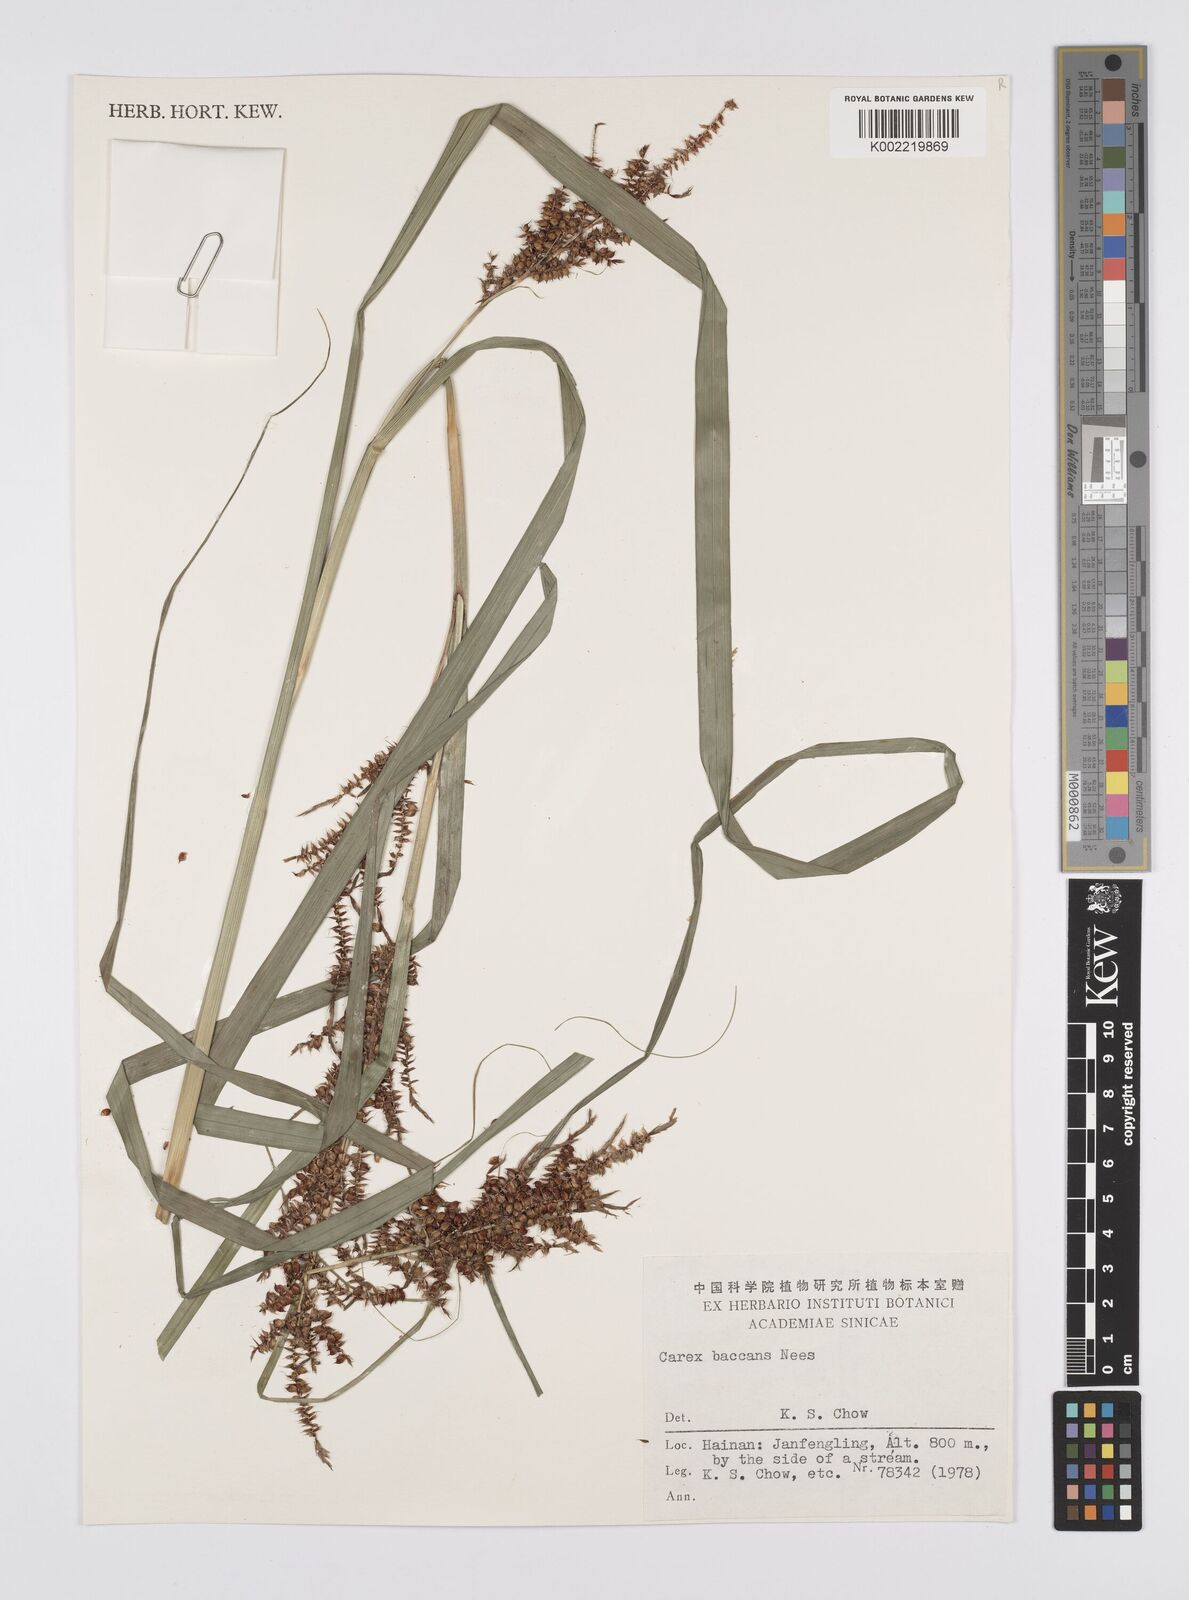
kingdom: Plantae
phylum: Tracheophyta
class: Liliopsida
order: Poales
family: Cyperaceae
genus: Carex
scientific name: Carex baccans
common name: Crimson seeded sedge
